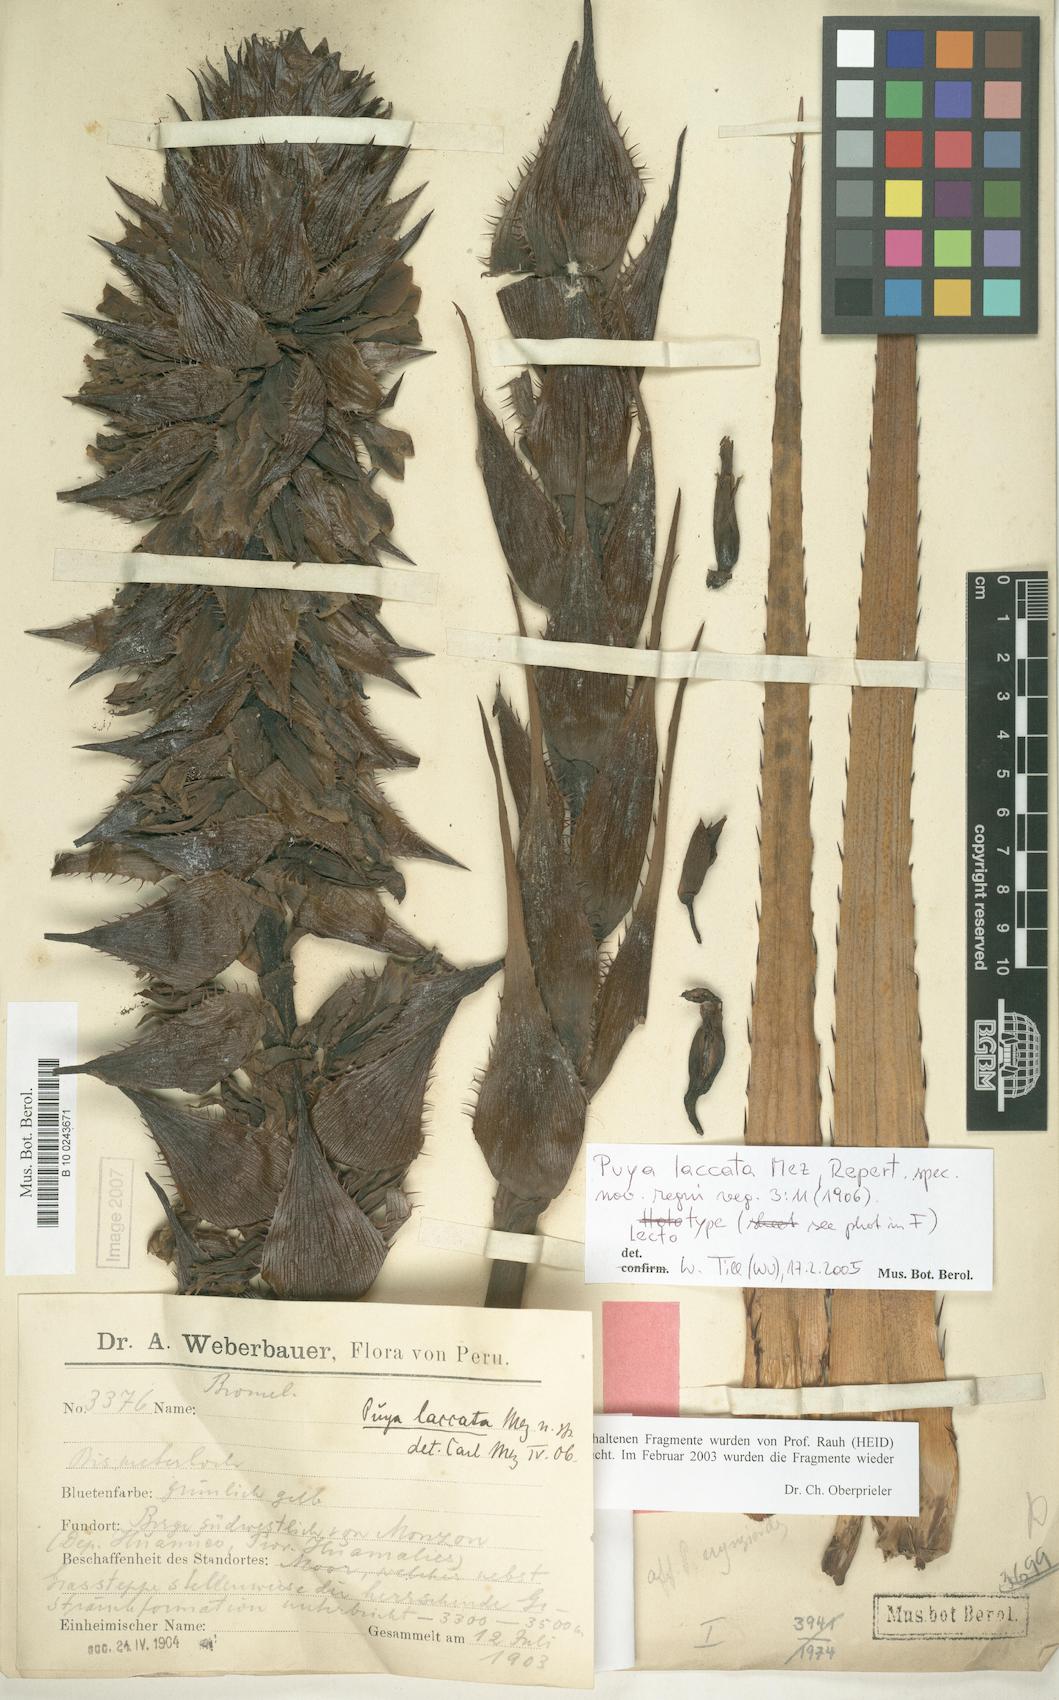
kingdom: Plantae
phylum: Tracheophyta
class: Liliopsida
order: Poales
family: Bromeliaceae
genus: Puya
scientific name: Puya laccata
